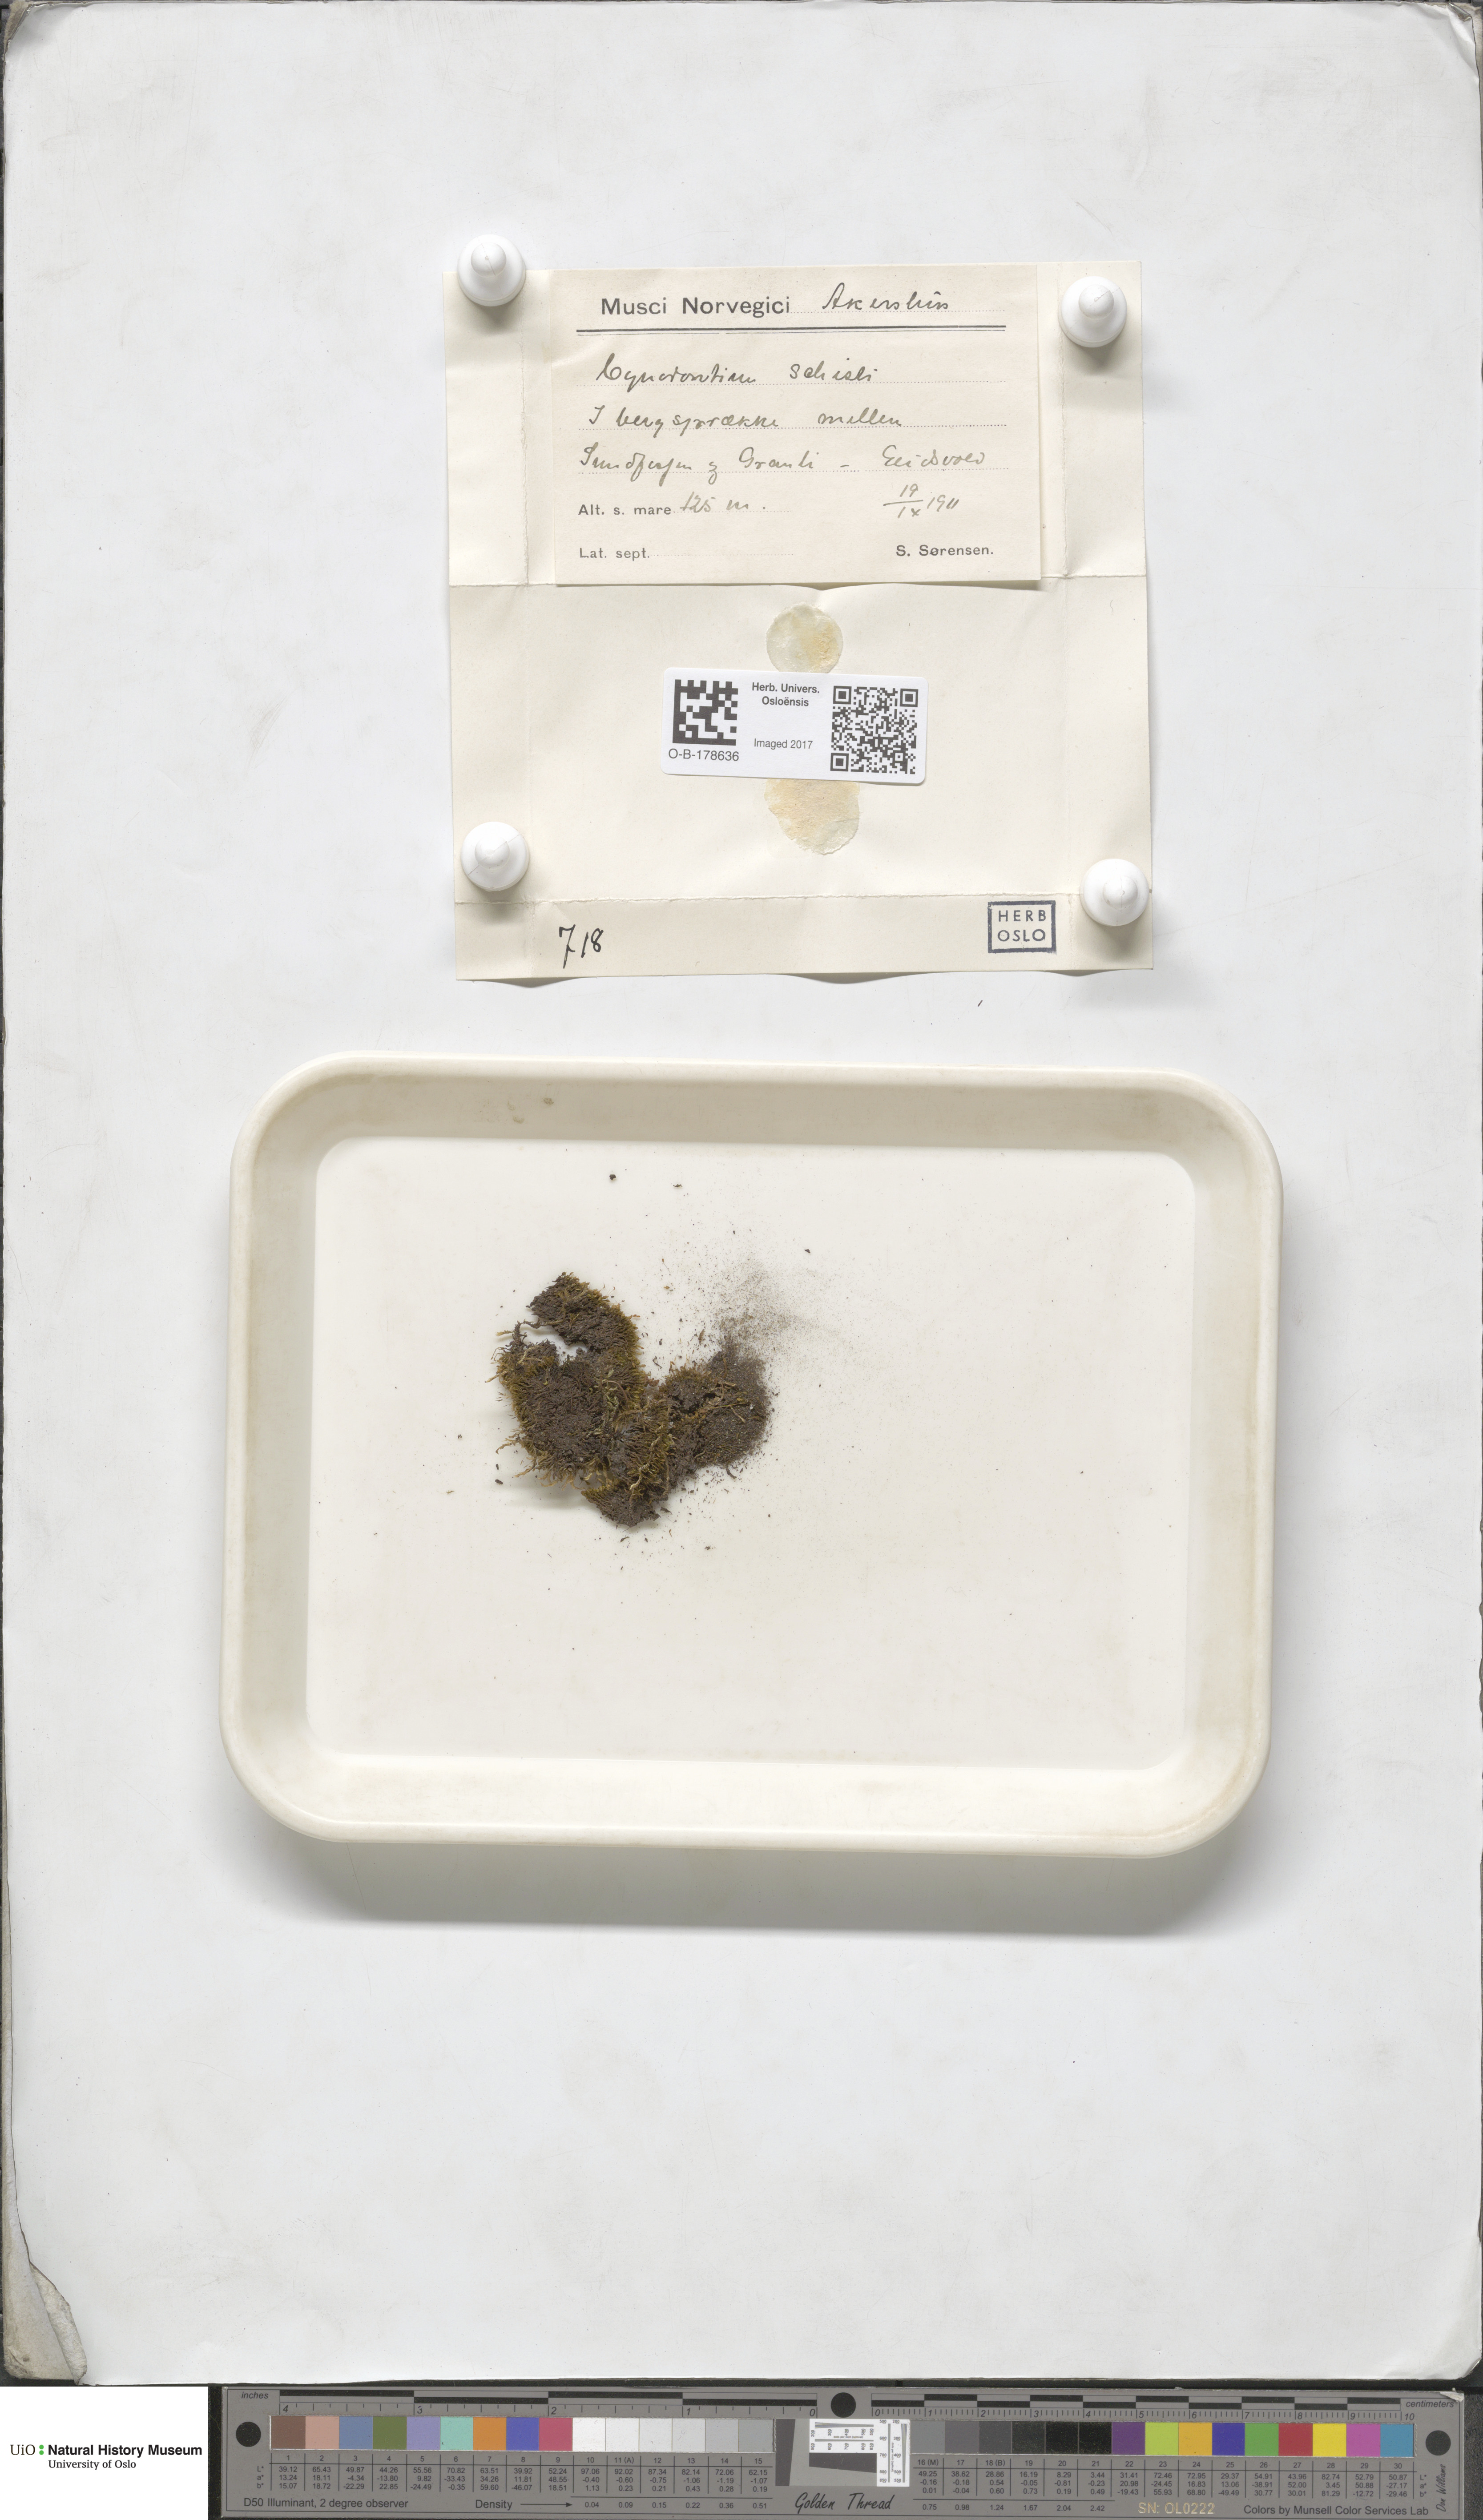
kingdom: Plantae
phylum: Bryophyta
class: Bryopsida
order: Dicranales
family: Rhabdoweisiaceae
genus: Cnestrum
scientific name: Cnestrum schisti
